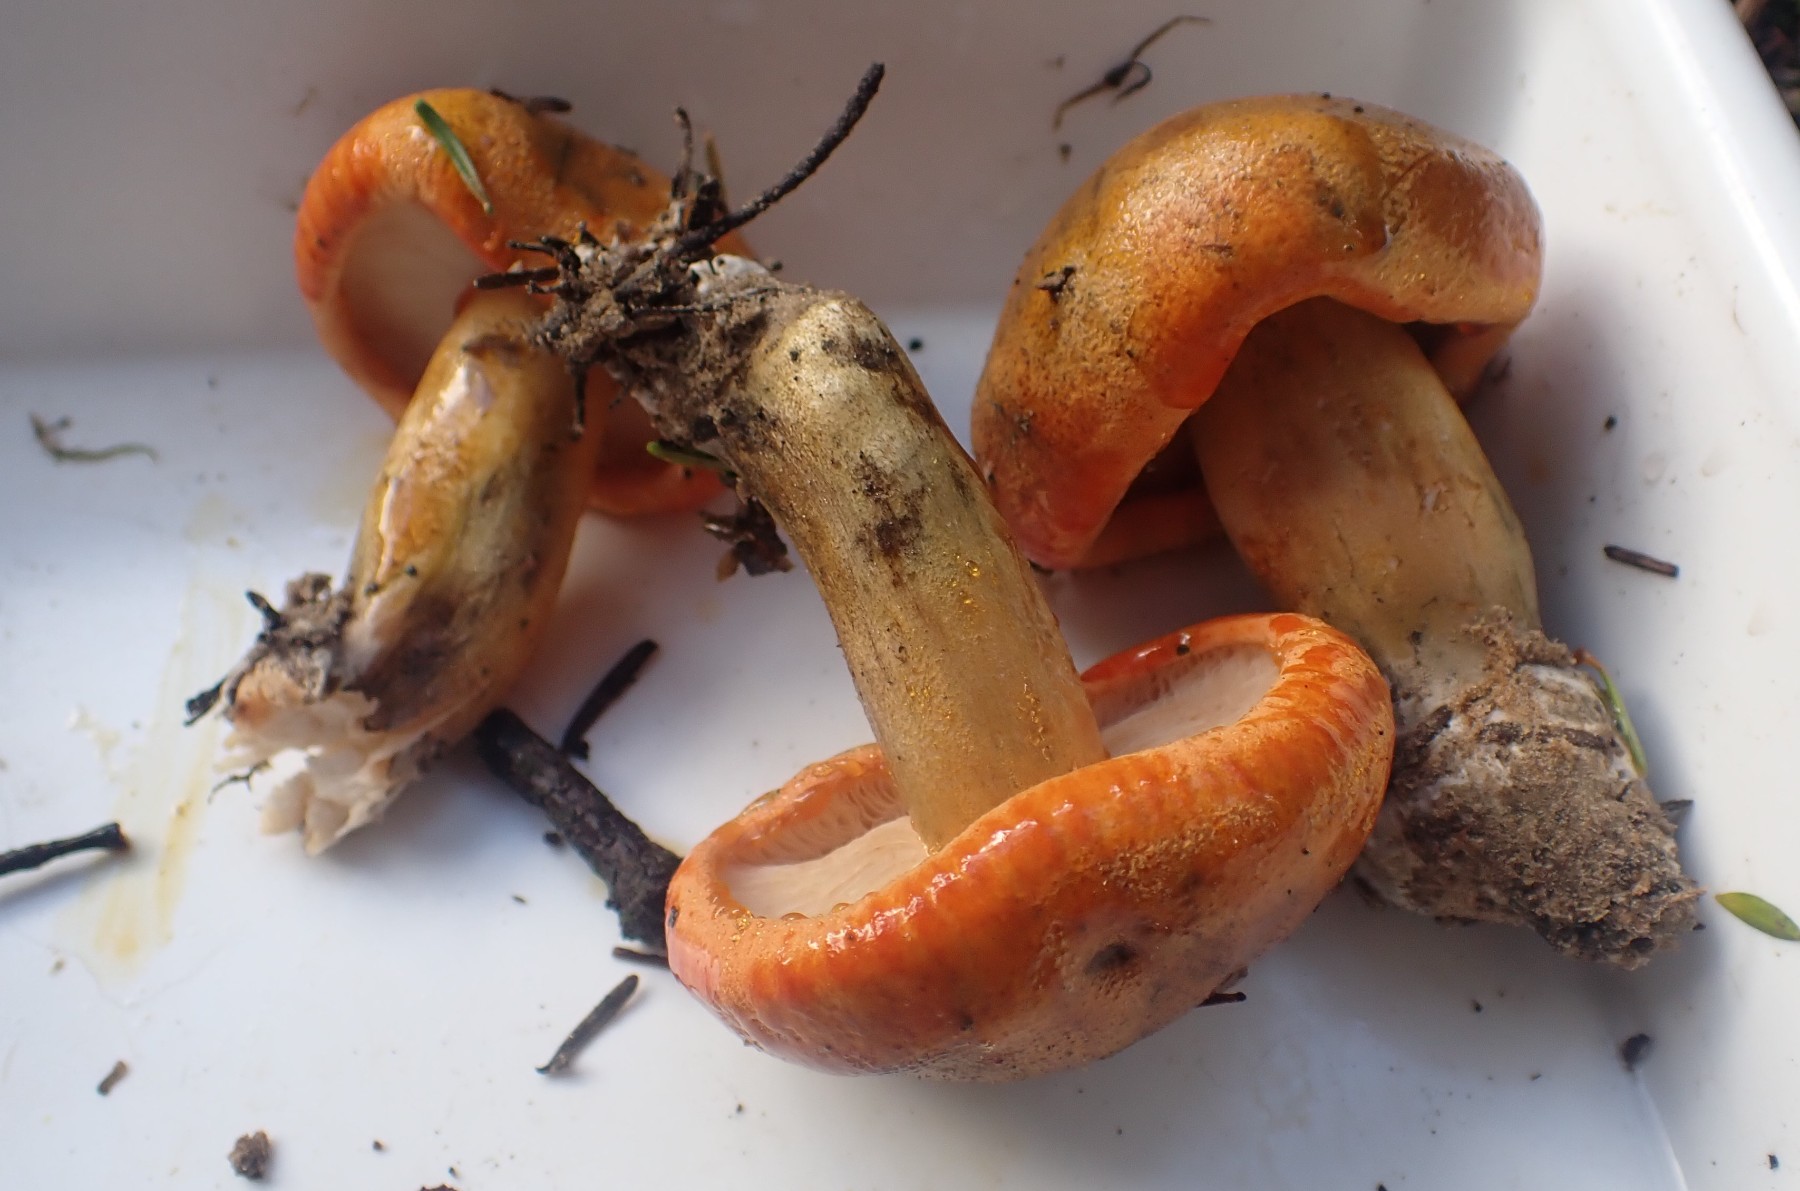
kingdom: Fungi
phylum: Basidiomycota
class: Agaricomycetes
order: Agaricales
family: Tricholomataceae
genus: Tricholoma
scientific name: Tricholoma aurantium
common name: orangegul ridderhat
